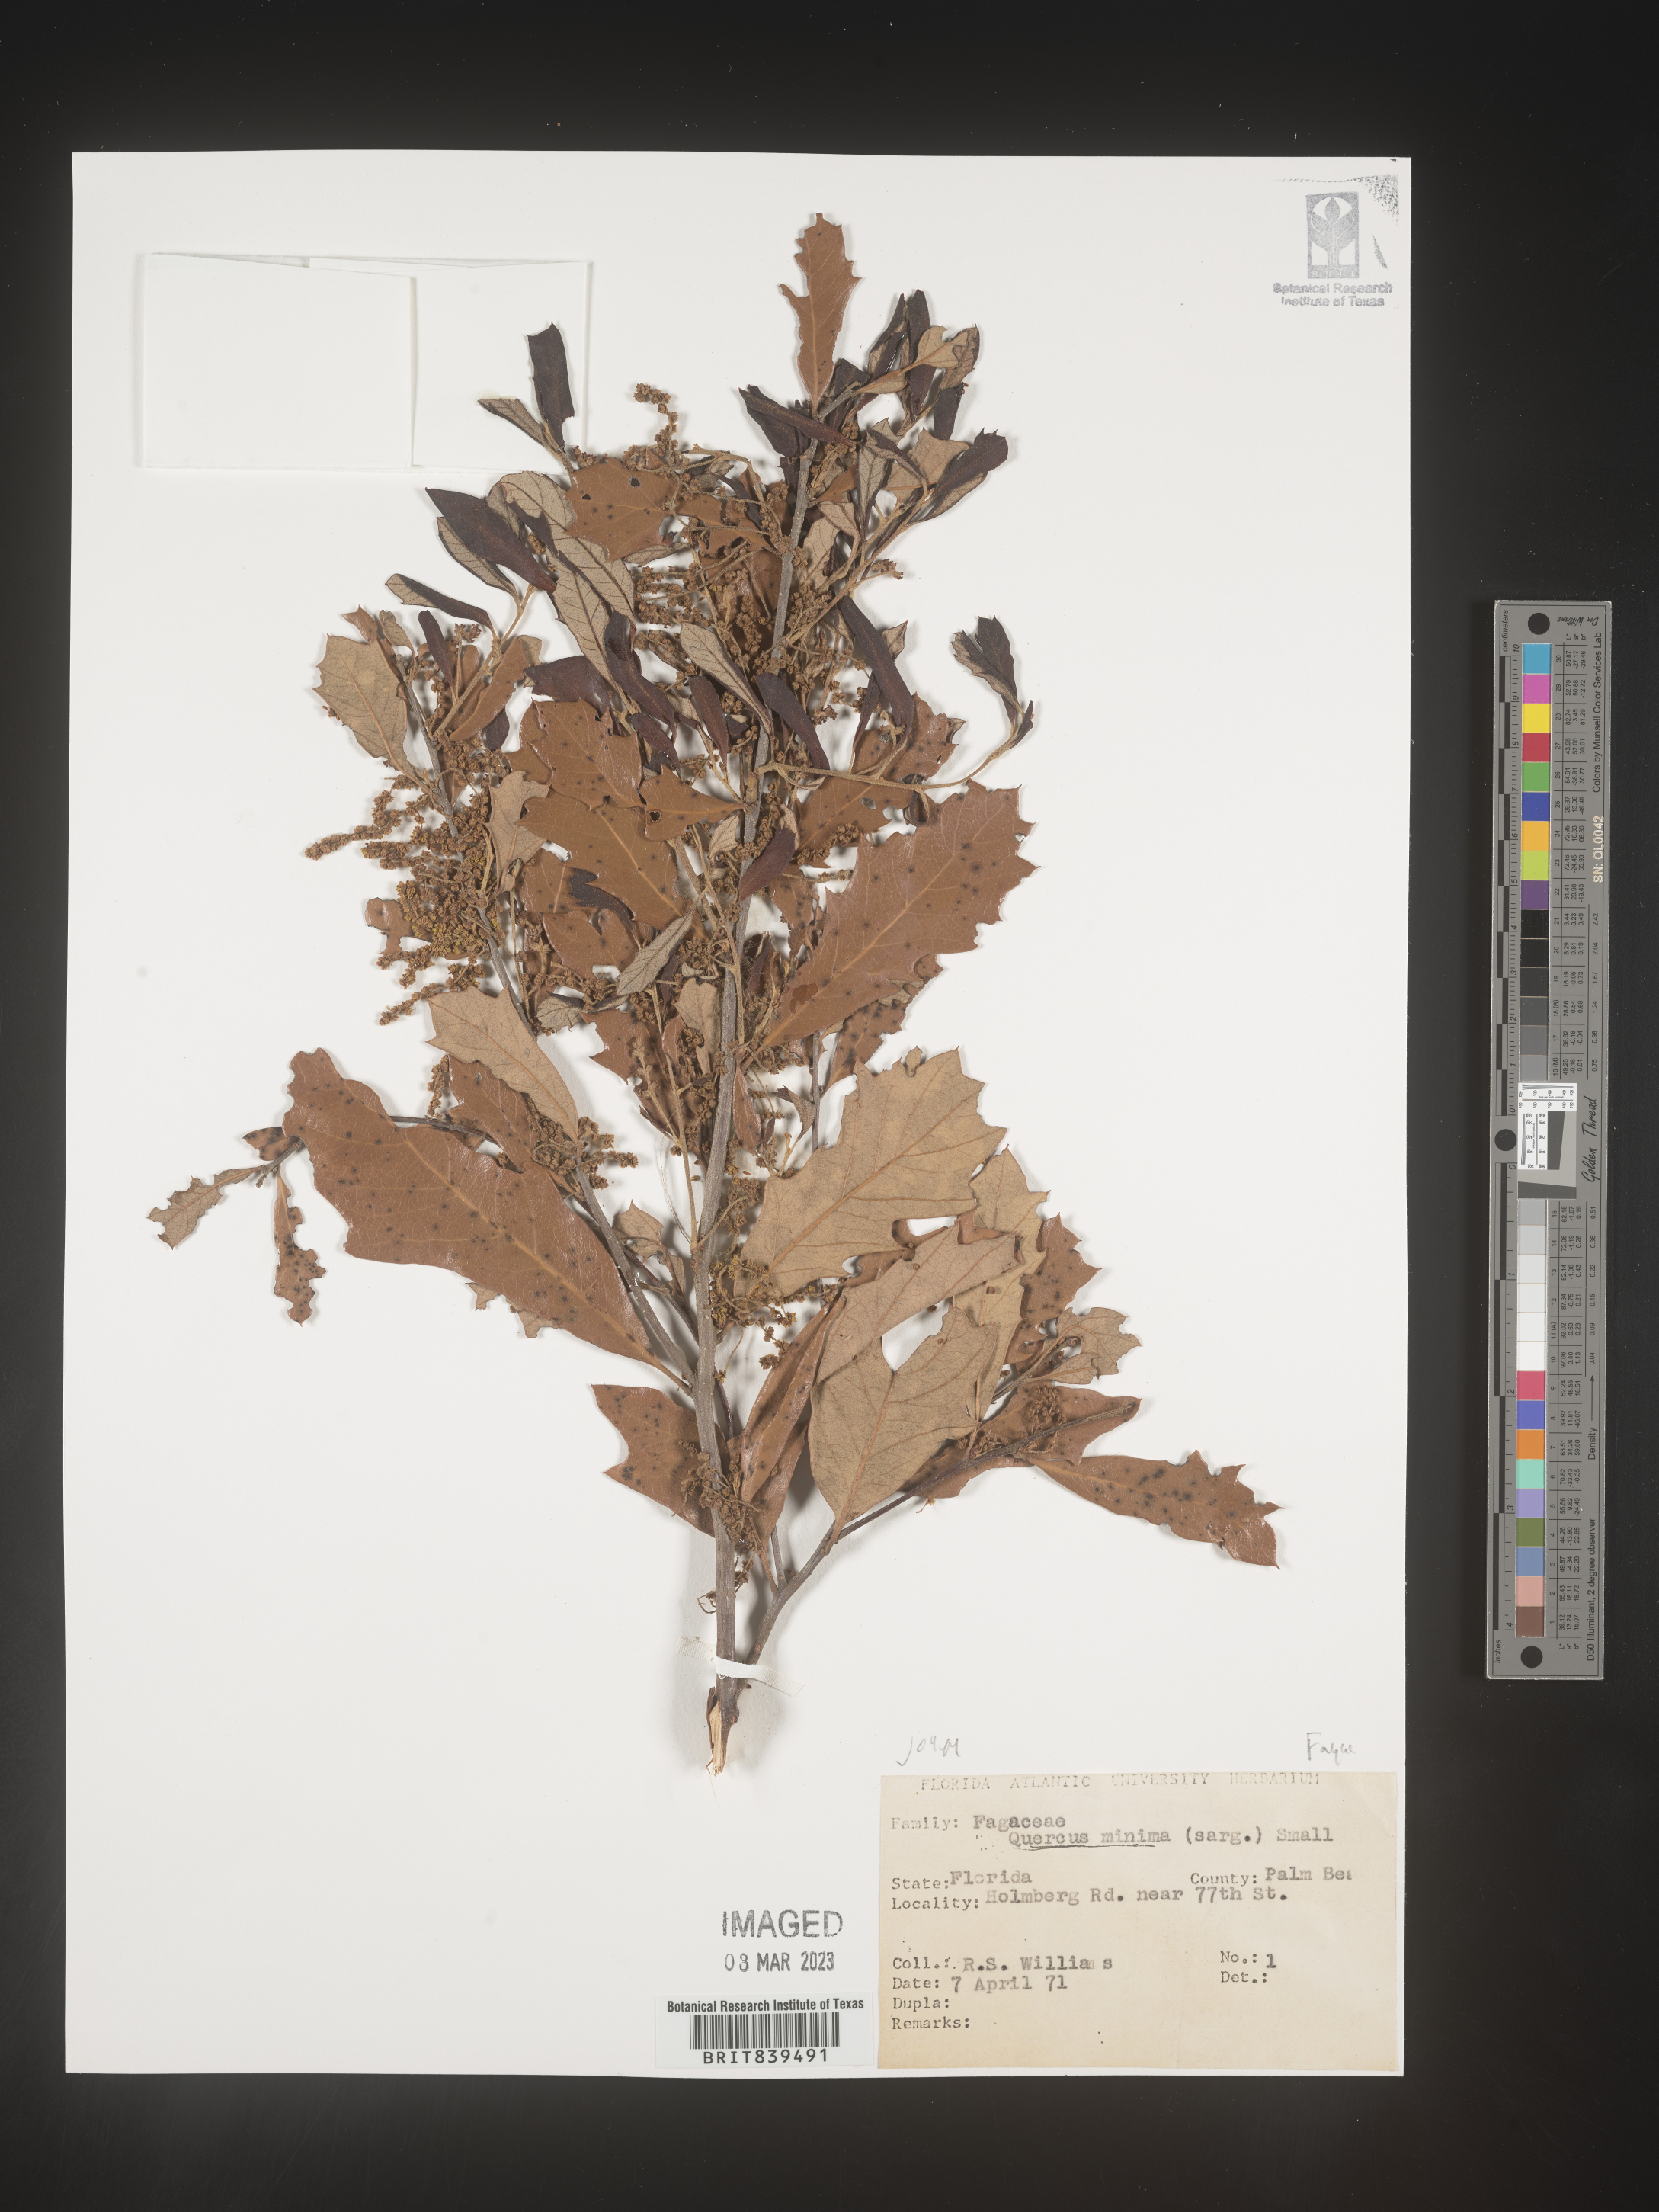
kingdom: Plantae
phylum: Tracheophyta
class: Magnoliopsida
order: Fagales
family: Fagaceae
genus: Quercus
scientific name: Quercus minima
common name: Dwarf live oak
